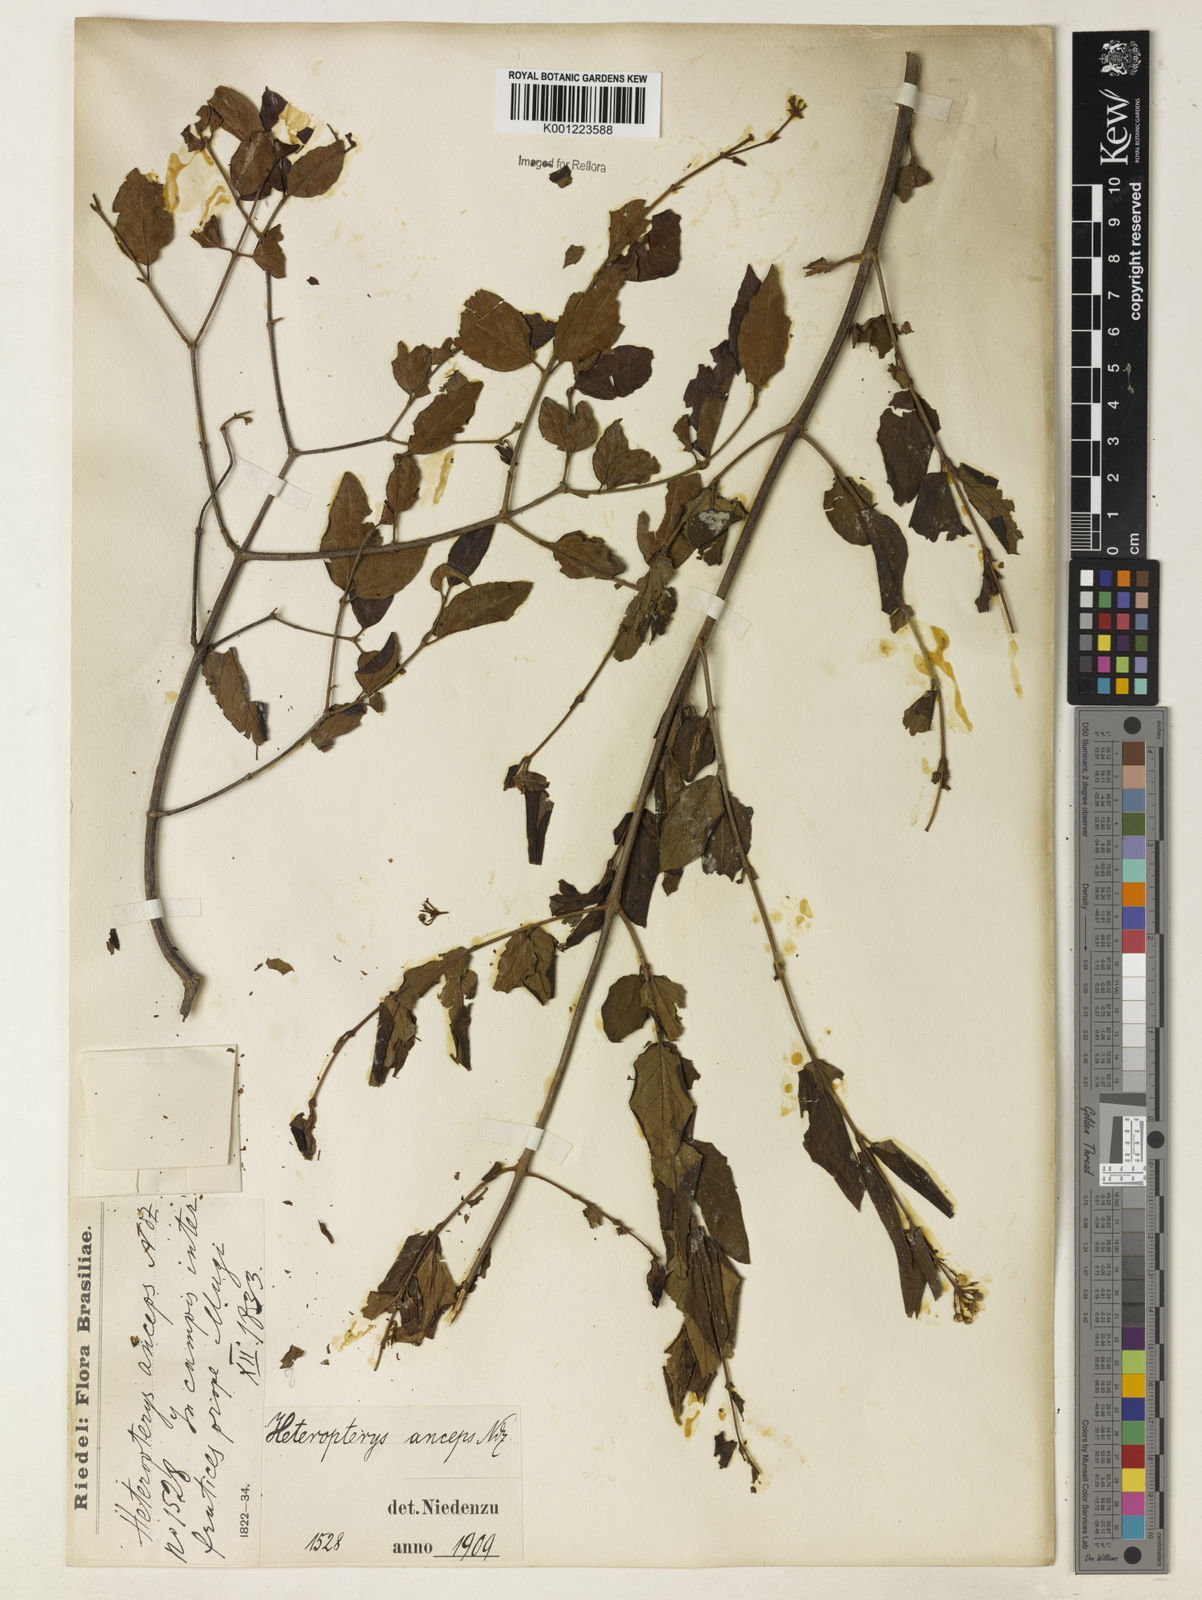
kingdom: Plantae
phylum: Tracheophyta
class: Magnoliopsida
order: Malpighiales
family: Malpighiaceae
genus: Heteropterys
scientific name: Heteropterys
